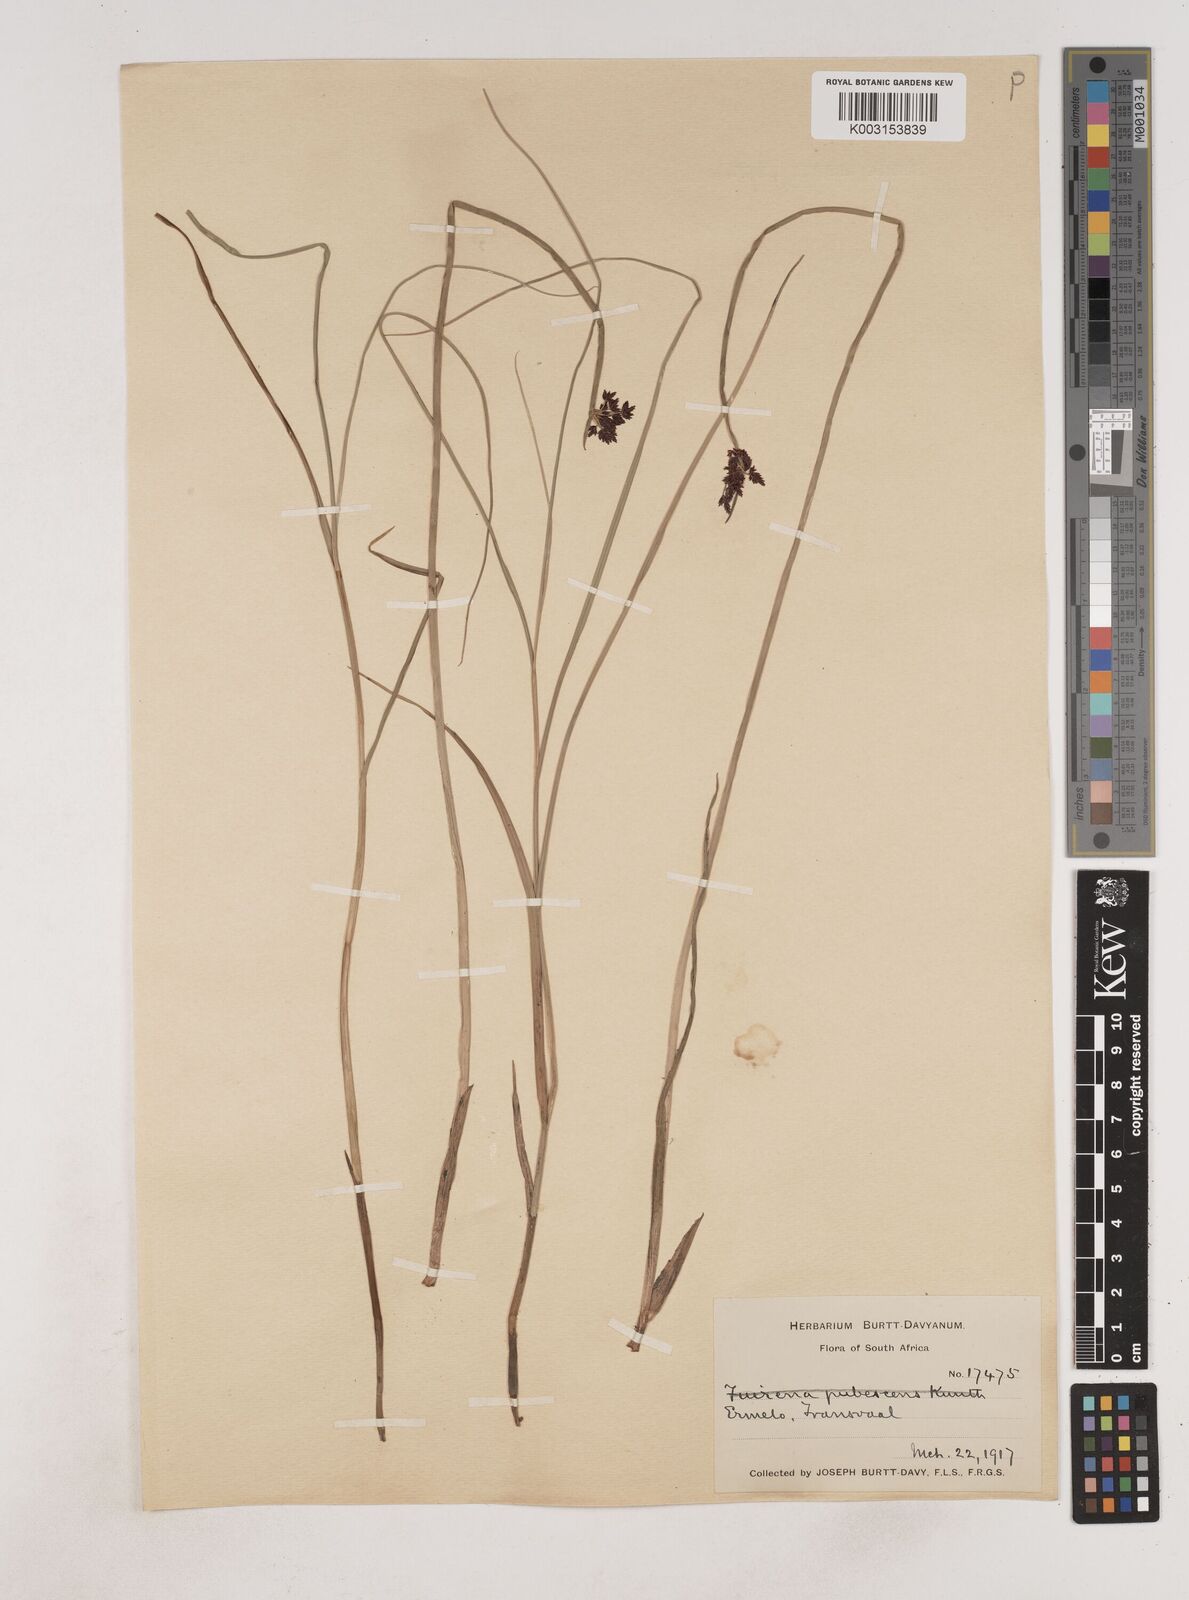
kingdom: Plantae
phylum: Tracheophyta
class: Liliopsida
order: Poales
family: Cyperaceae
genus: Cyperus
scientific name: Cyperus
